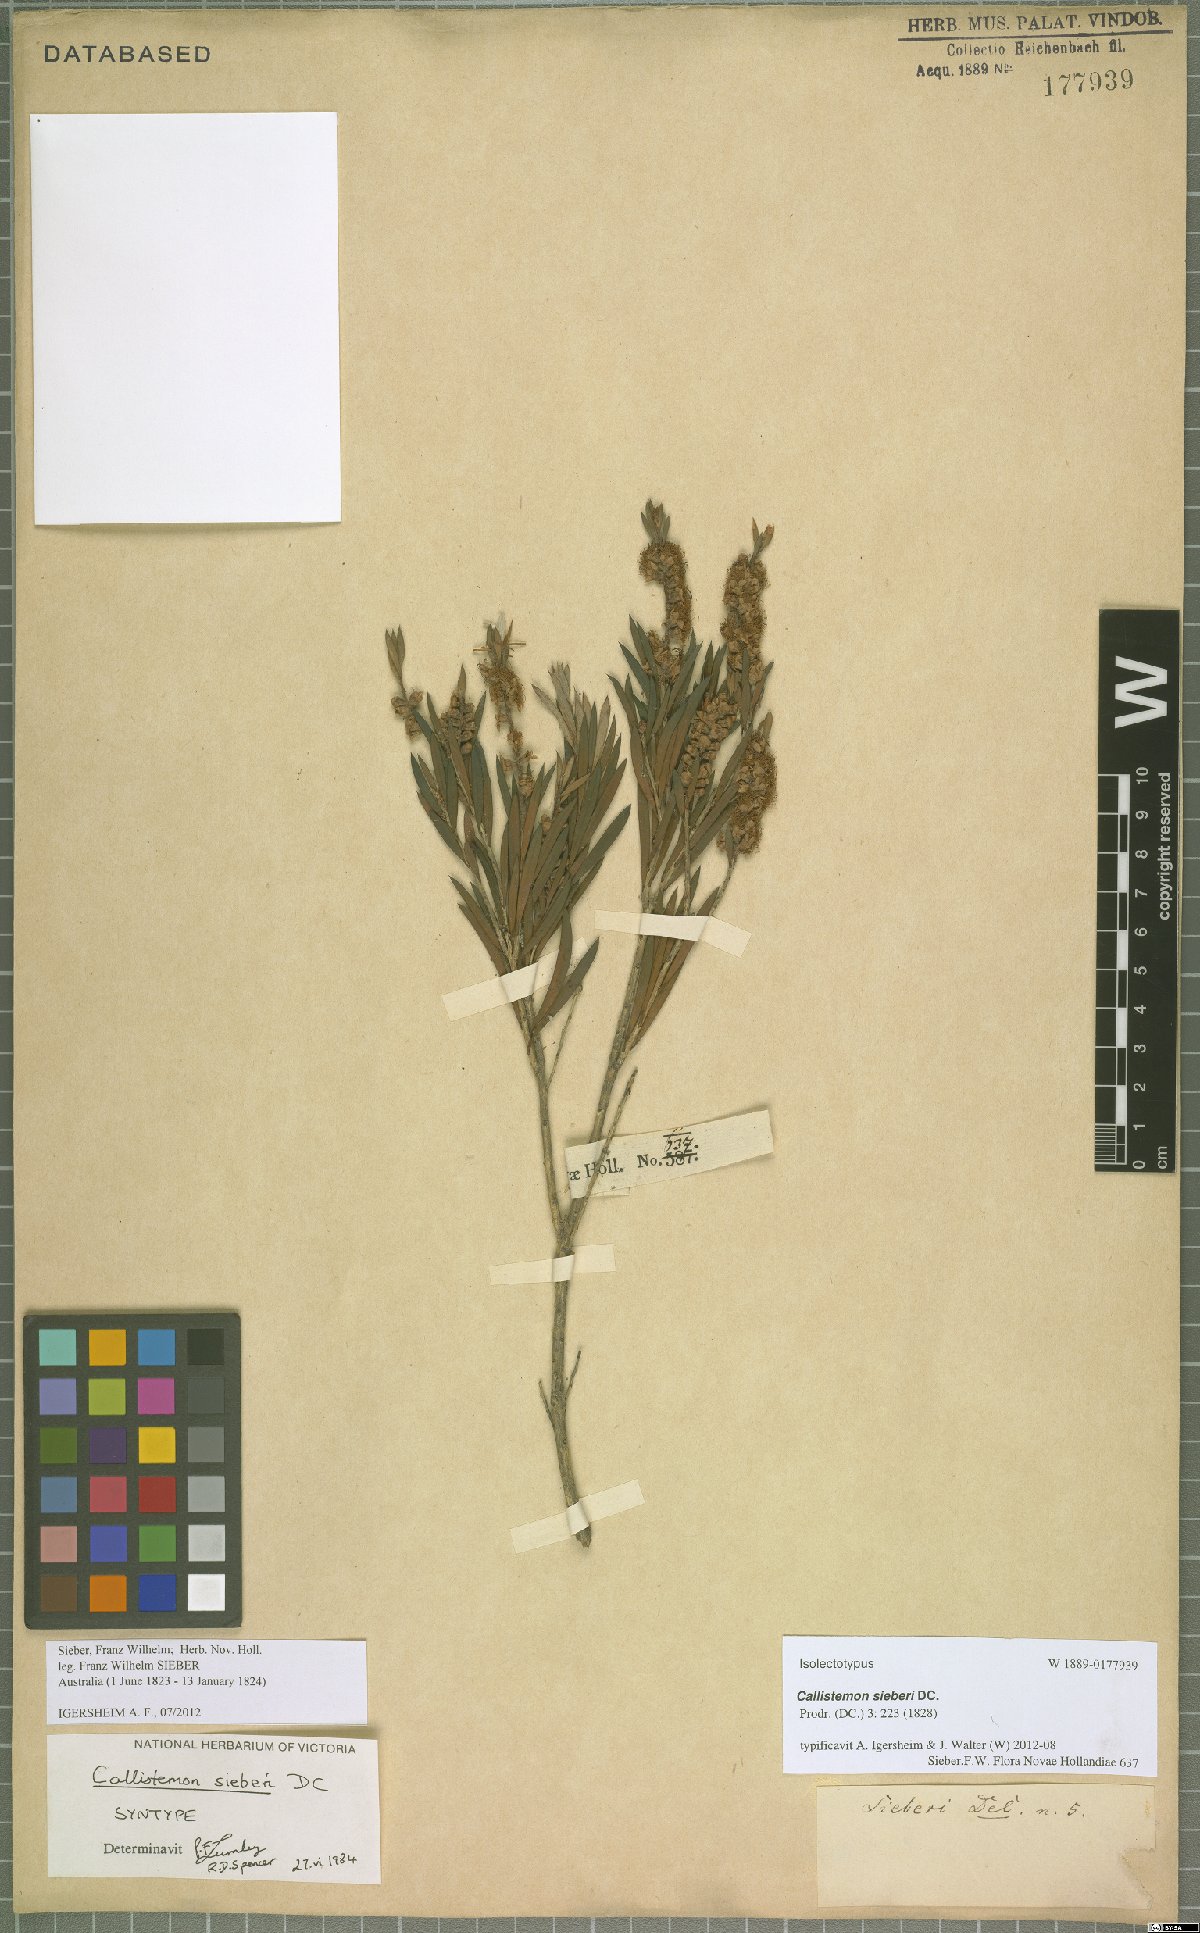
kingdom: Plantae
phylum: Tracheophyta
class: Magnoliopsida
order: Myrtales
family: Myrtaceae
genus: Callistemon
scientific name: Callistemon paludosus
